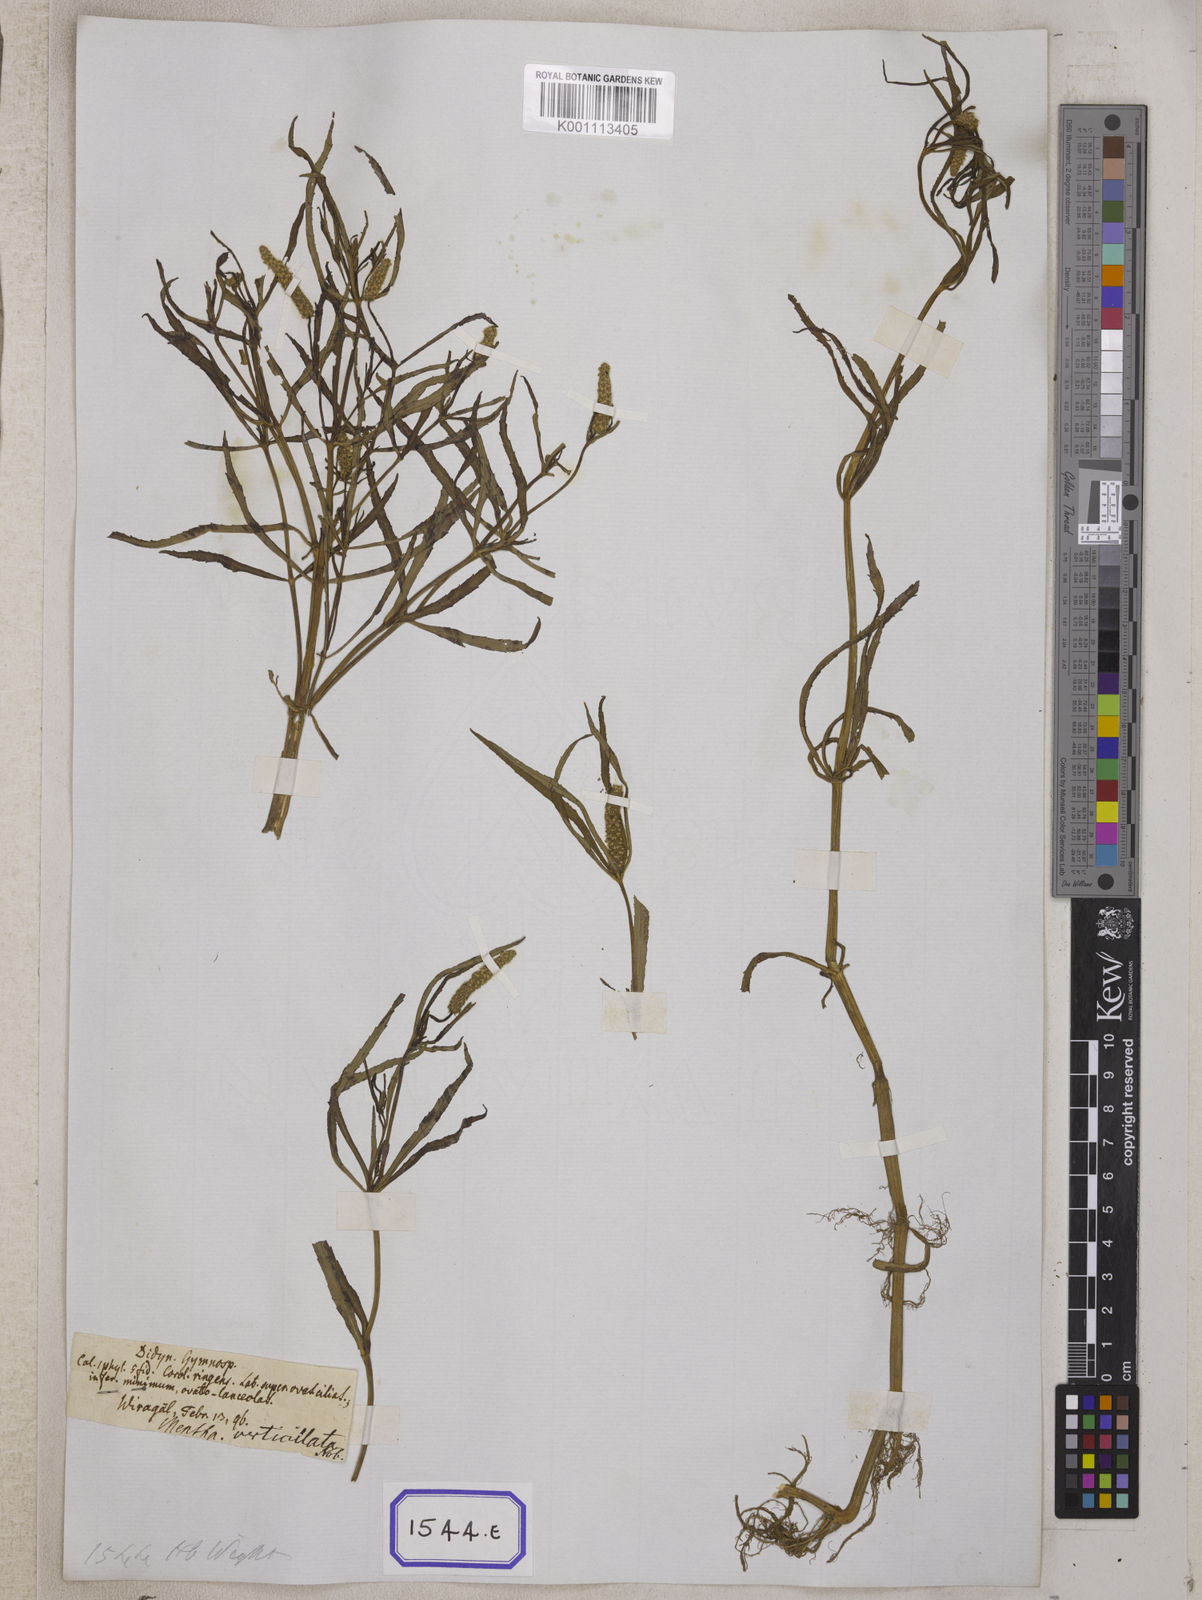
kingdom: Plantae
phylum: Tracheophyta
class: Magnoliopsida
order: Lamiales
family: Lamiaceae
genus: Pogostemon
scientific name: Pogostemon
